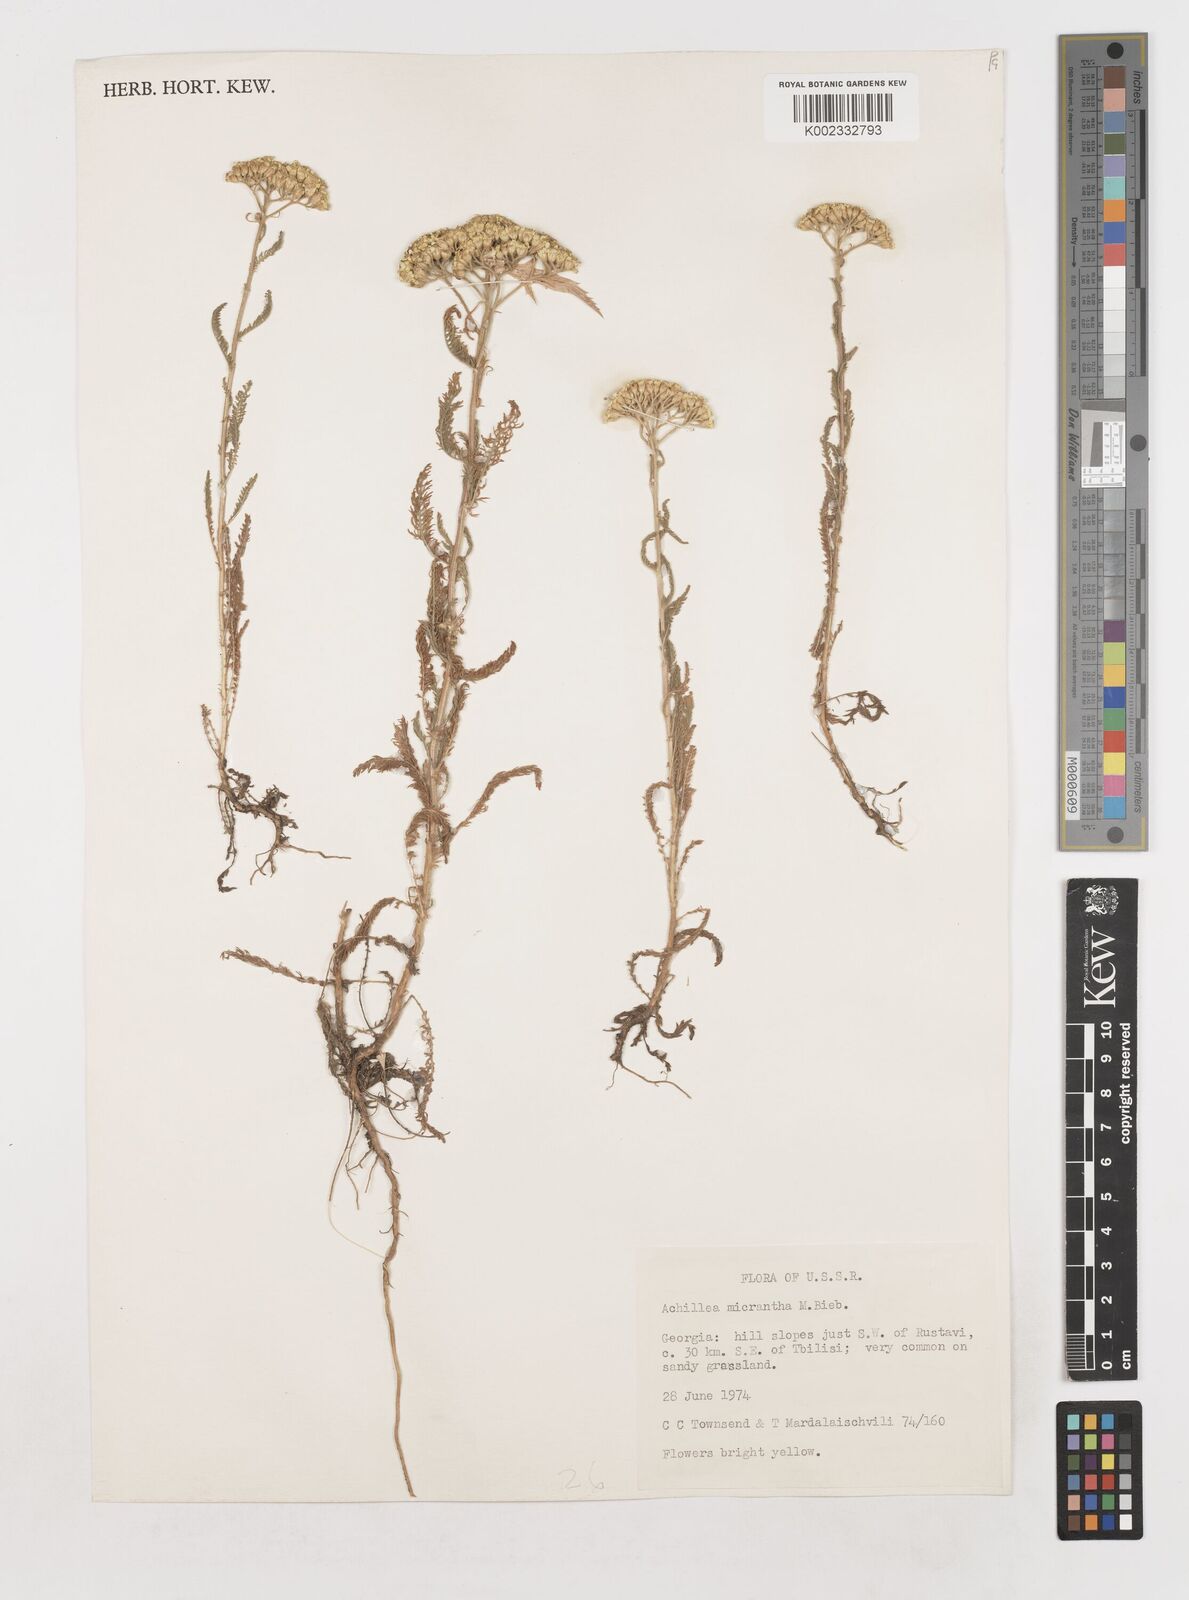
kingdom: Plantae
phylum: Tracheophyta
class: Magnoliopsida
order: Asterales
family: Asteraceae
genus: Achillea
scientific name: Achillea arabica
